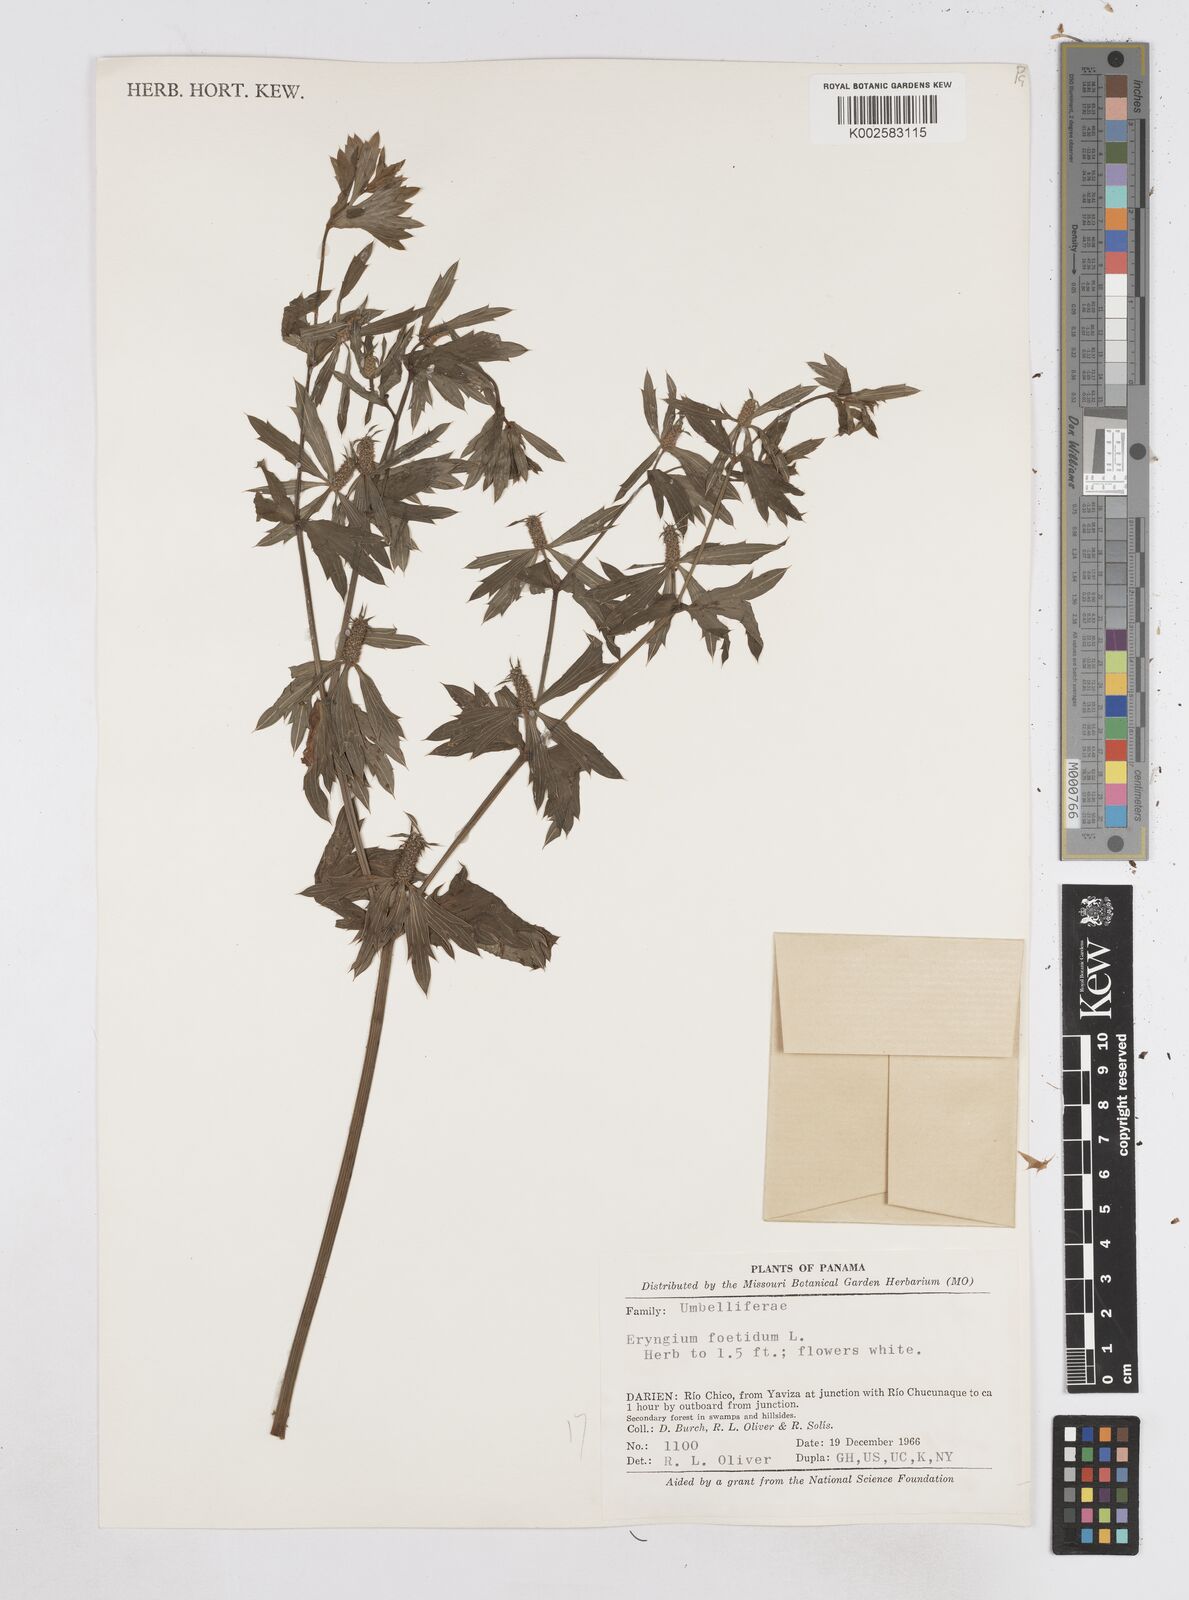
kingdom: Plantae
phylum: Tracheophyta
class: Magnoliopsida
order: Apiales
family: Apiaceae
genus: Eryngium
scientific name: Eryngium foetidum
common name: Fitweed
